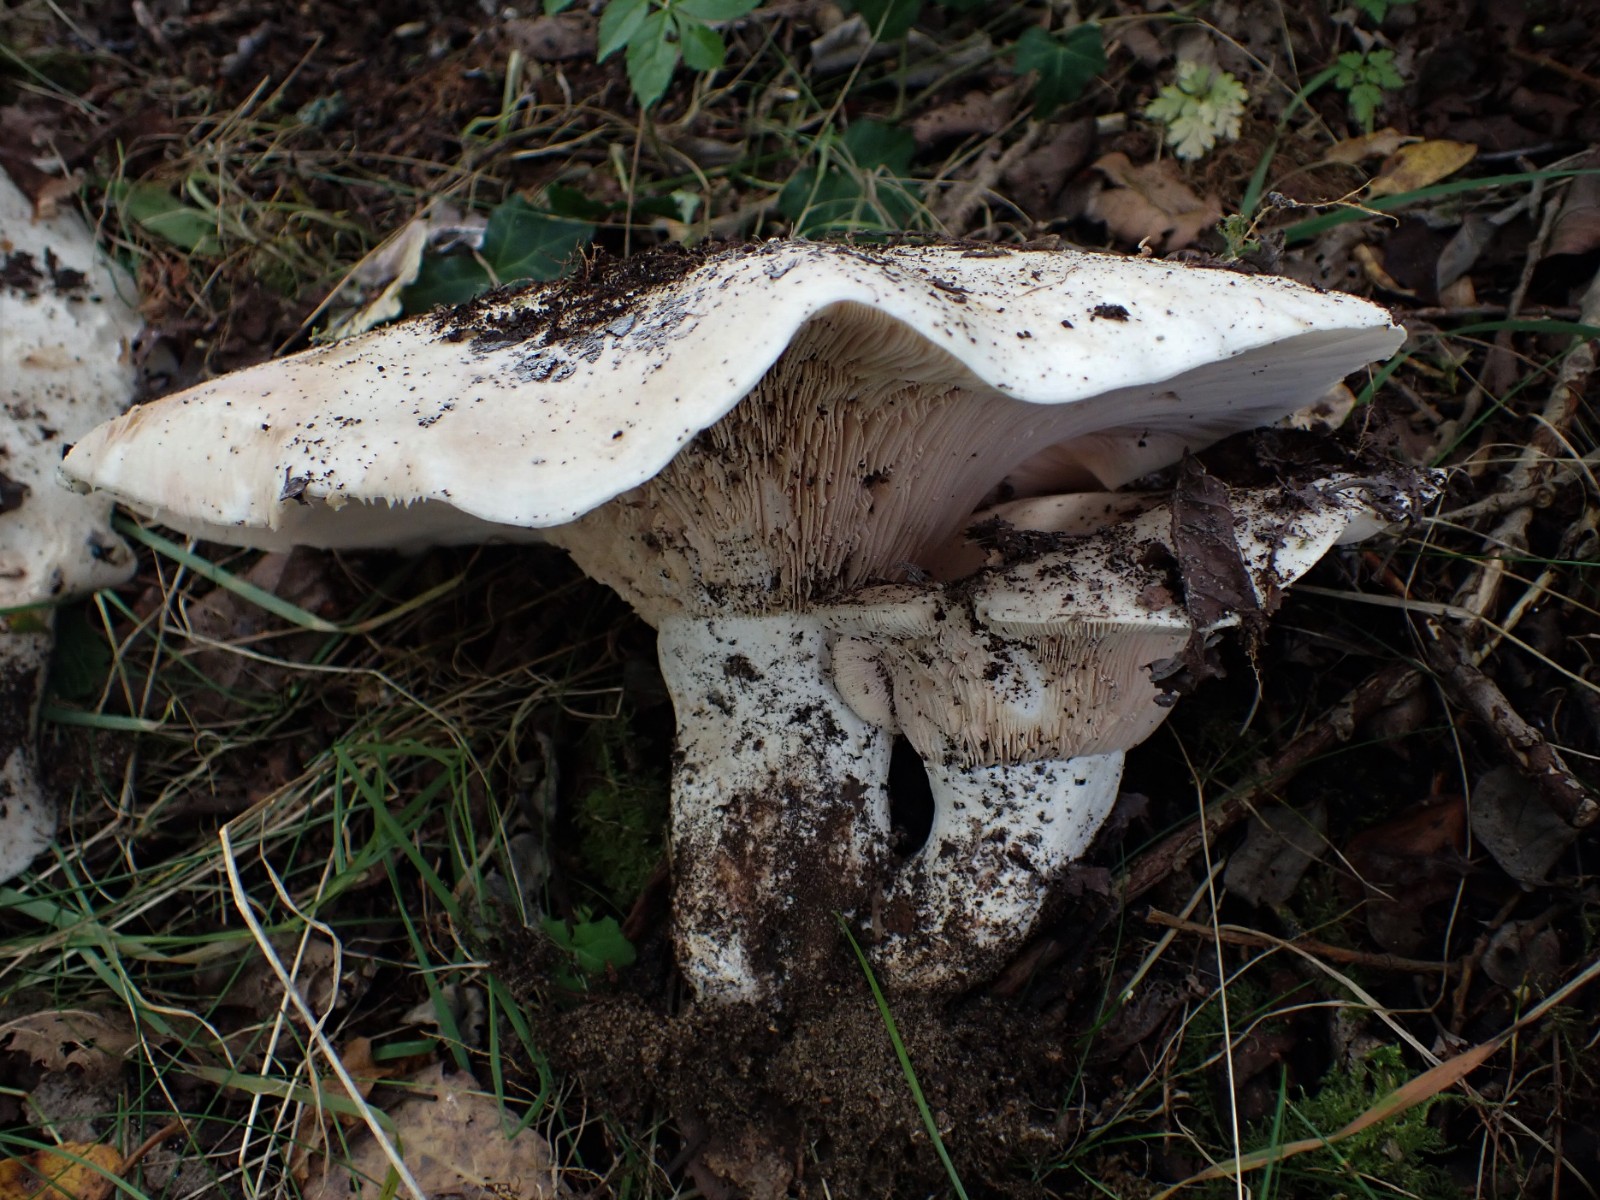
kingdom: Fungi
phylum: Basidiomycota
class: Agaricomycetes
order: Russulales
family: Russulaceae
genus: Lactarius
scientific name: Lactarius controversus
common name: rosabladet mælkehat
